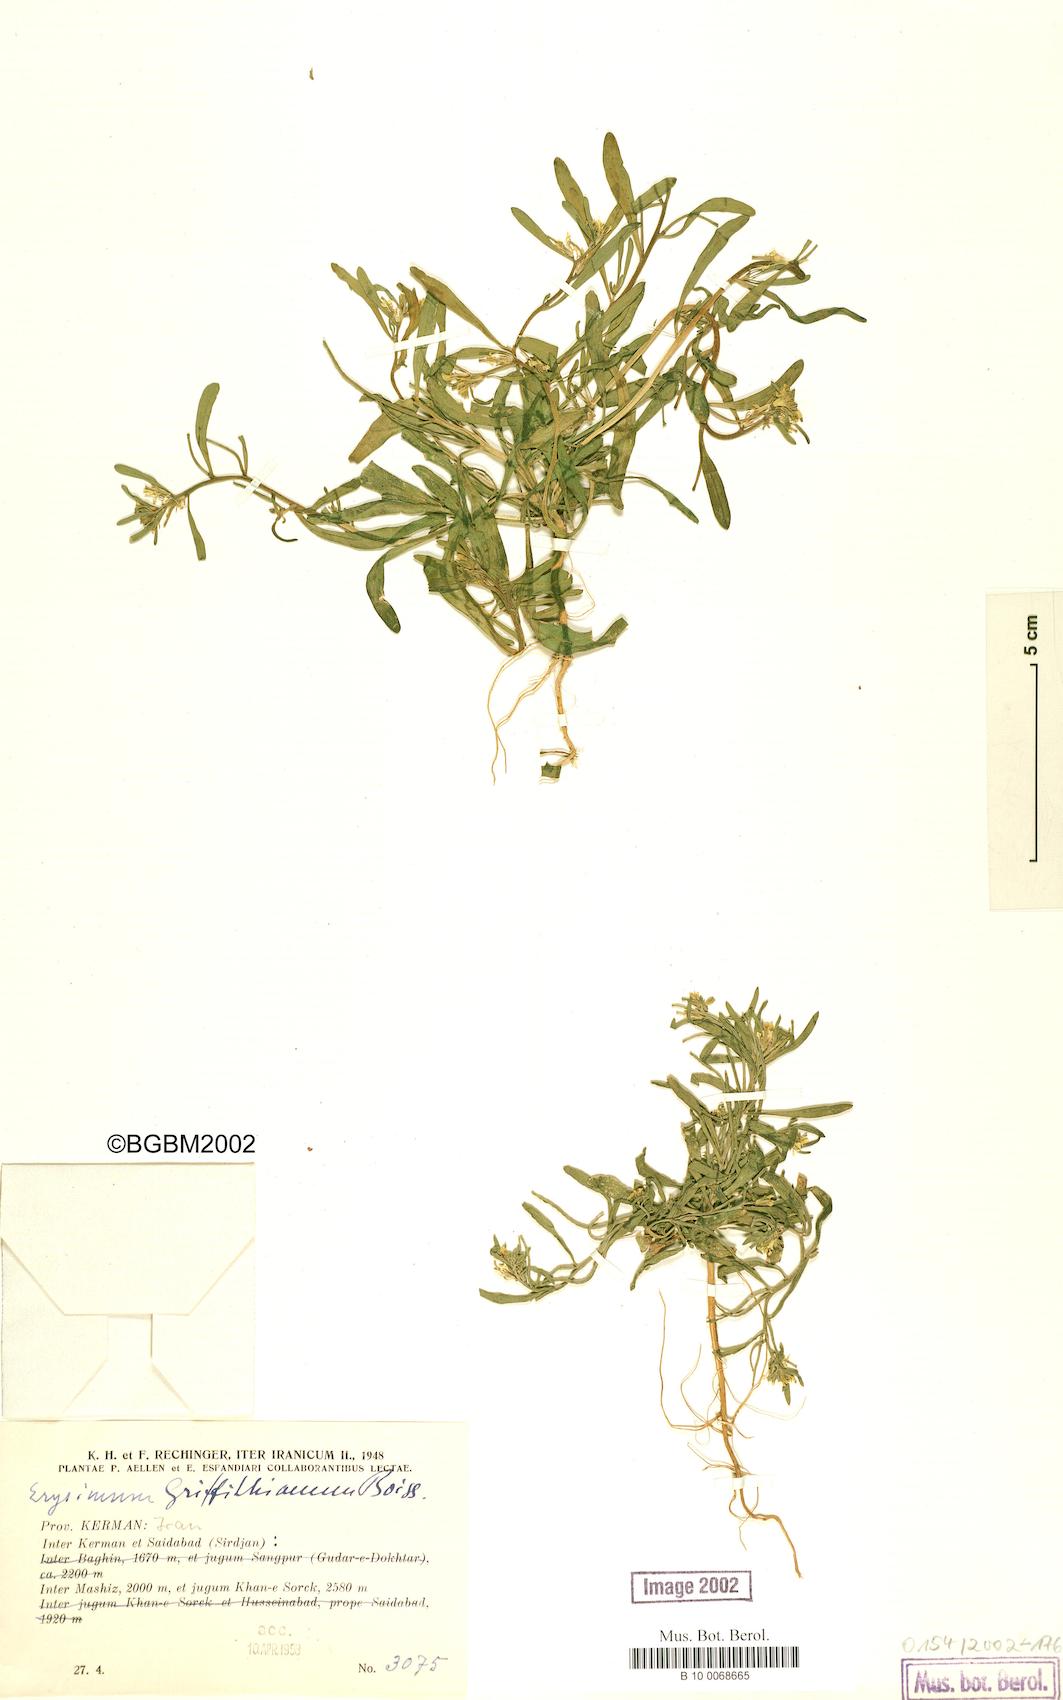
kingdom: Plantae
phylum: Tracheophyta
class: Magnoliopsida
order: Brassicales
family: Brassicaceae
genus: Erysimum
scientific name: Erysimum sisymbrioides
